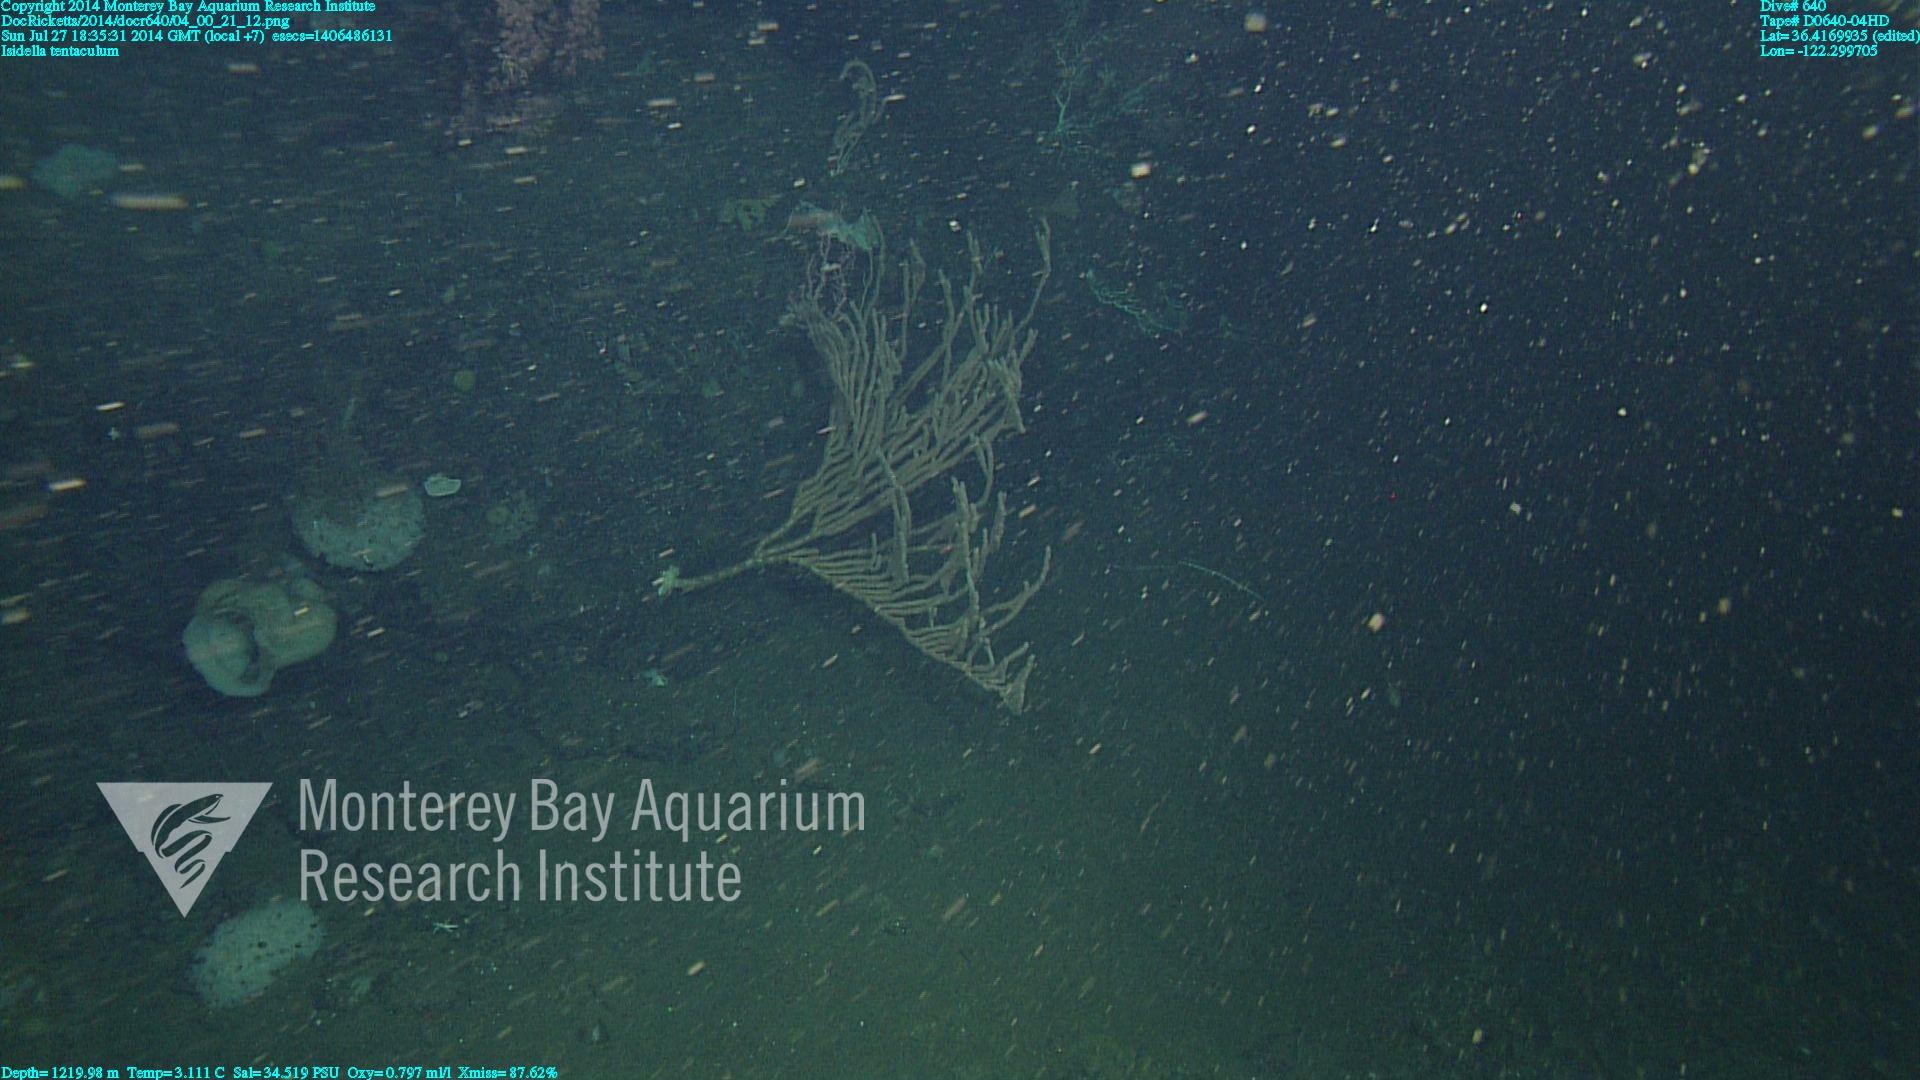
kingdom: Animalia
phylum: Cnidaria
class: Anthozoa
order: Scleralcyonacea
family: Keratoisididae
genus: Isidella
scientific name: Isidella tentaculum
